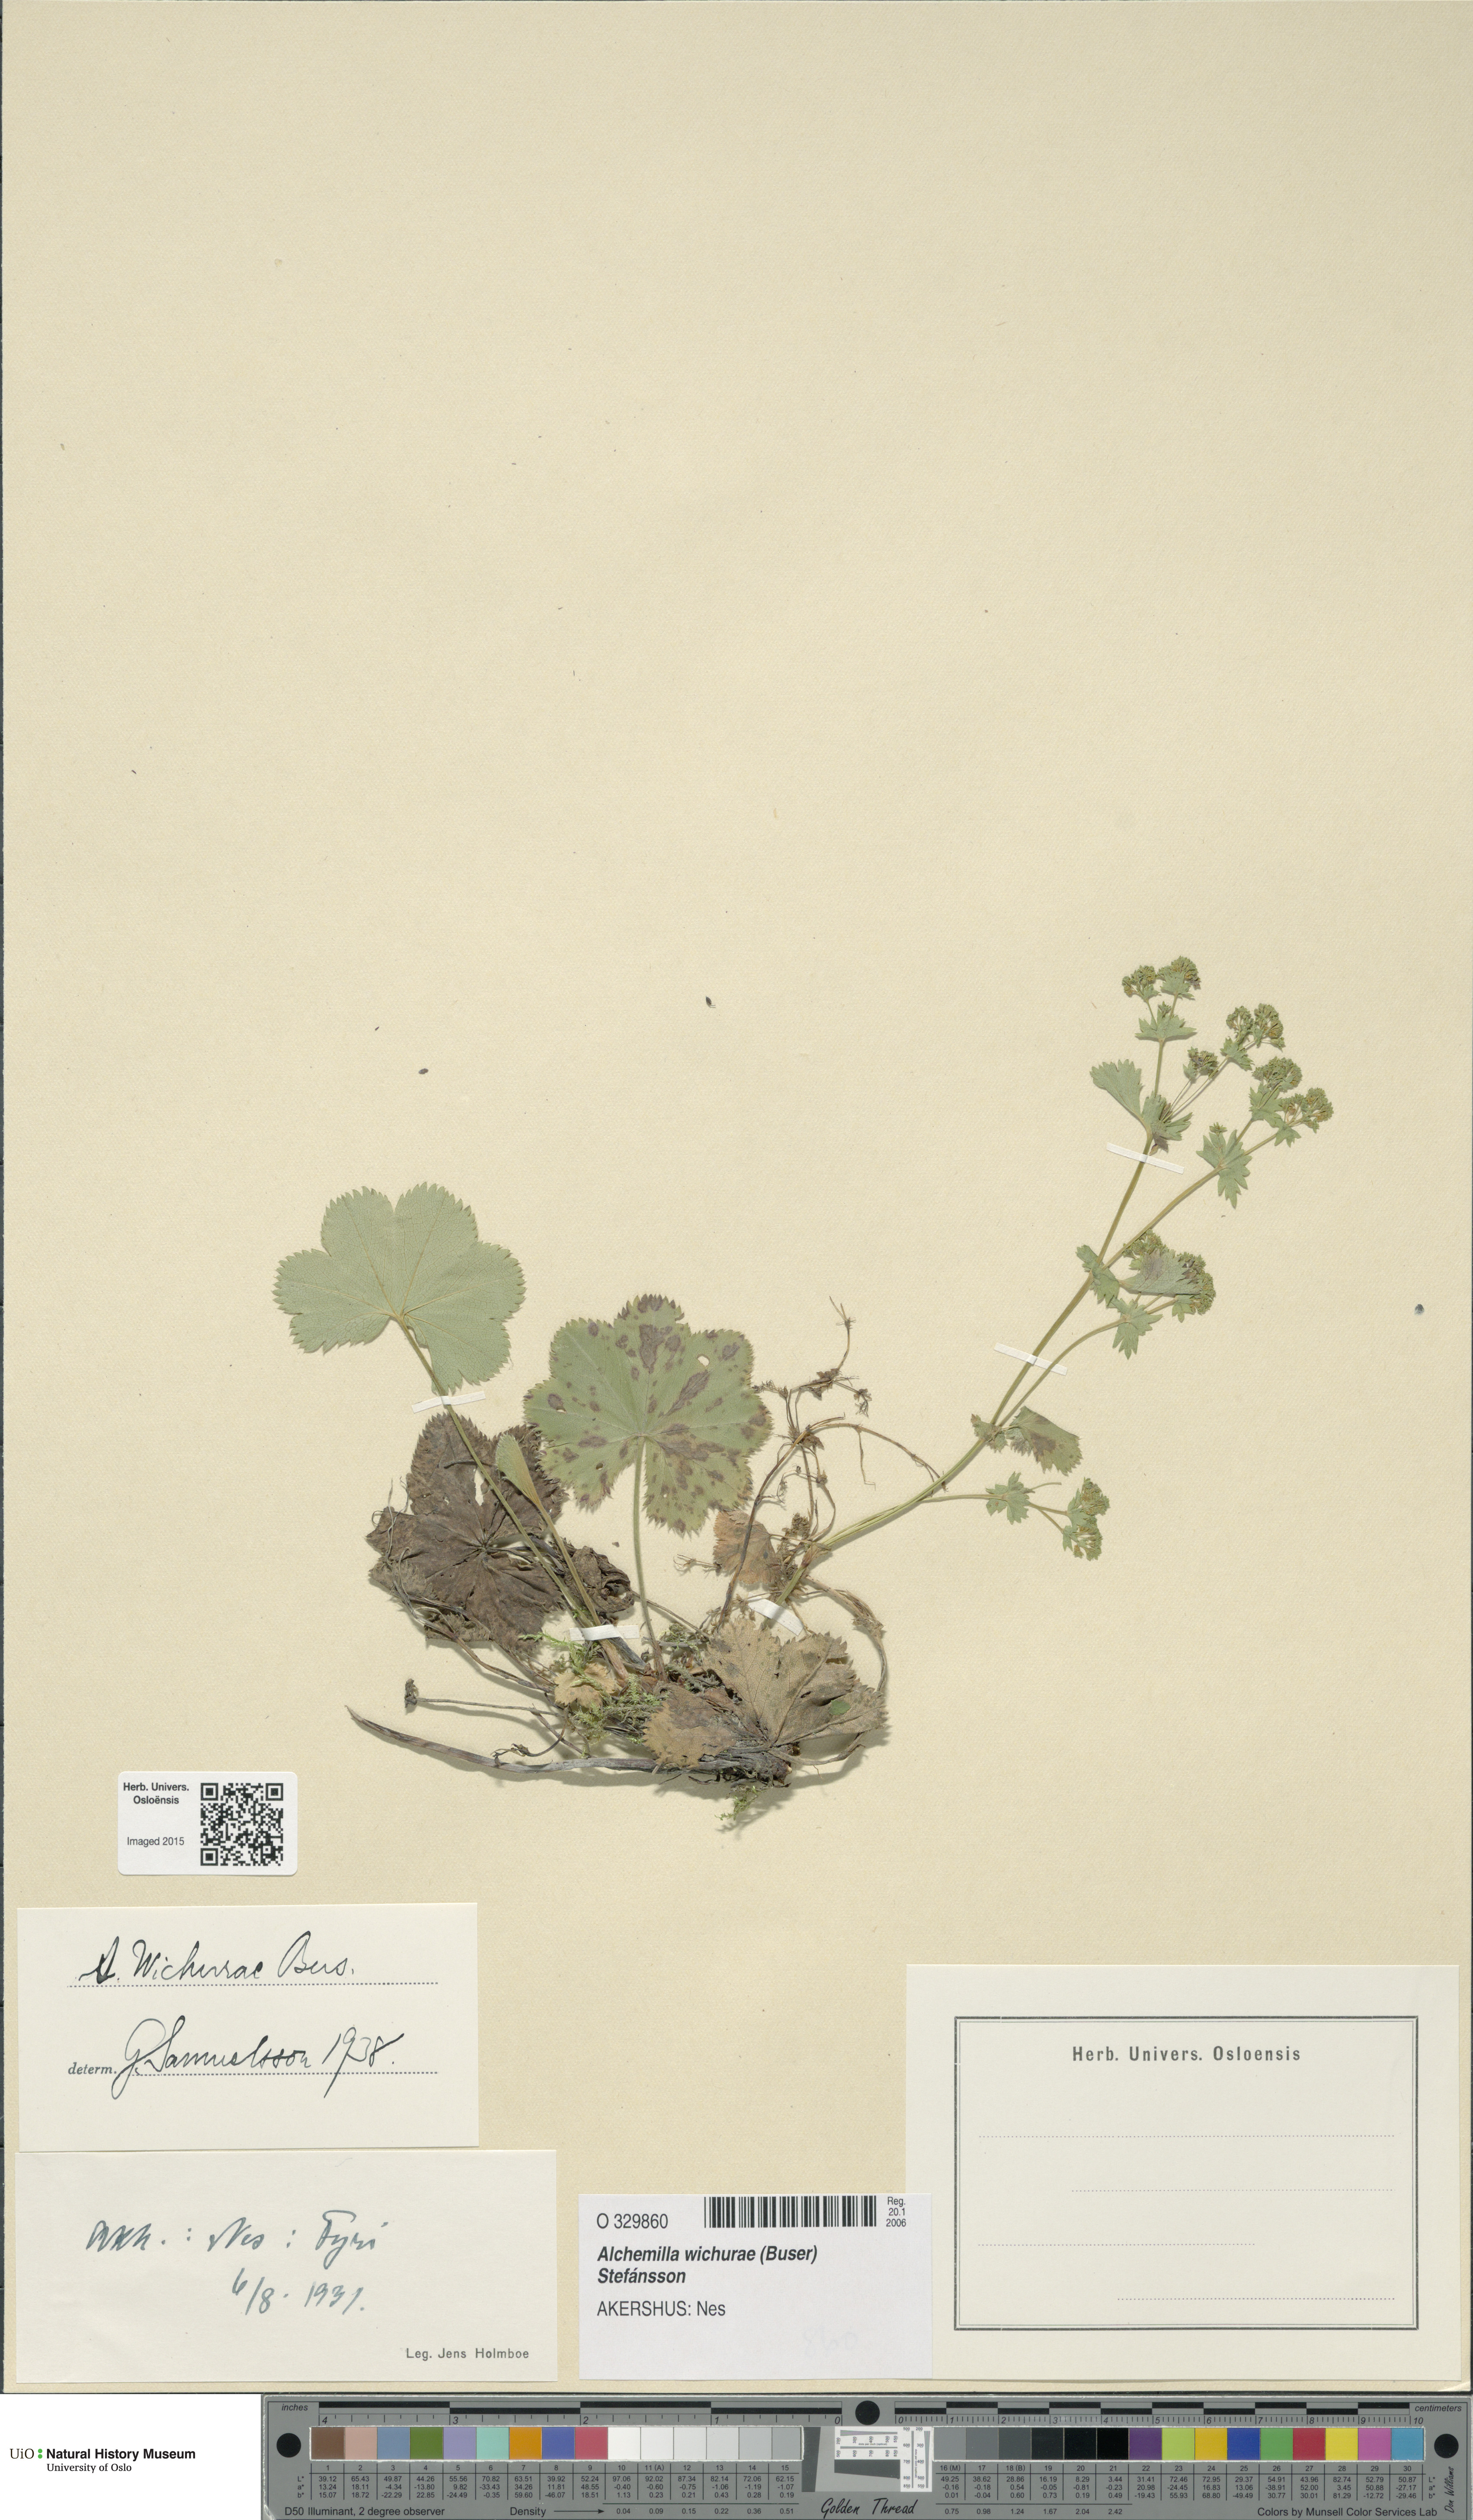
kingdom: Plantae
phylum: Tracheophyta
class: Magnoliopsida
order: Rosales
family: Rosaceae
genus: Alchemilla
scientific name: Alchemilla wichurae
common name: Rock lady's mantle
